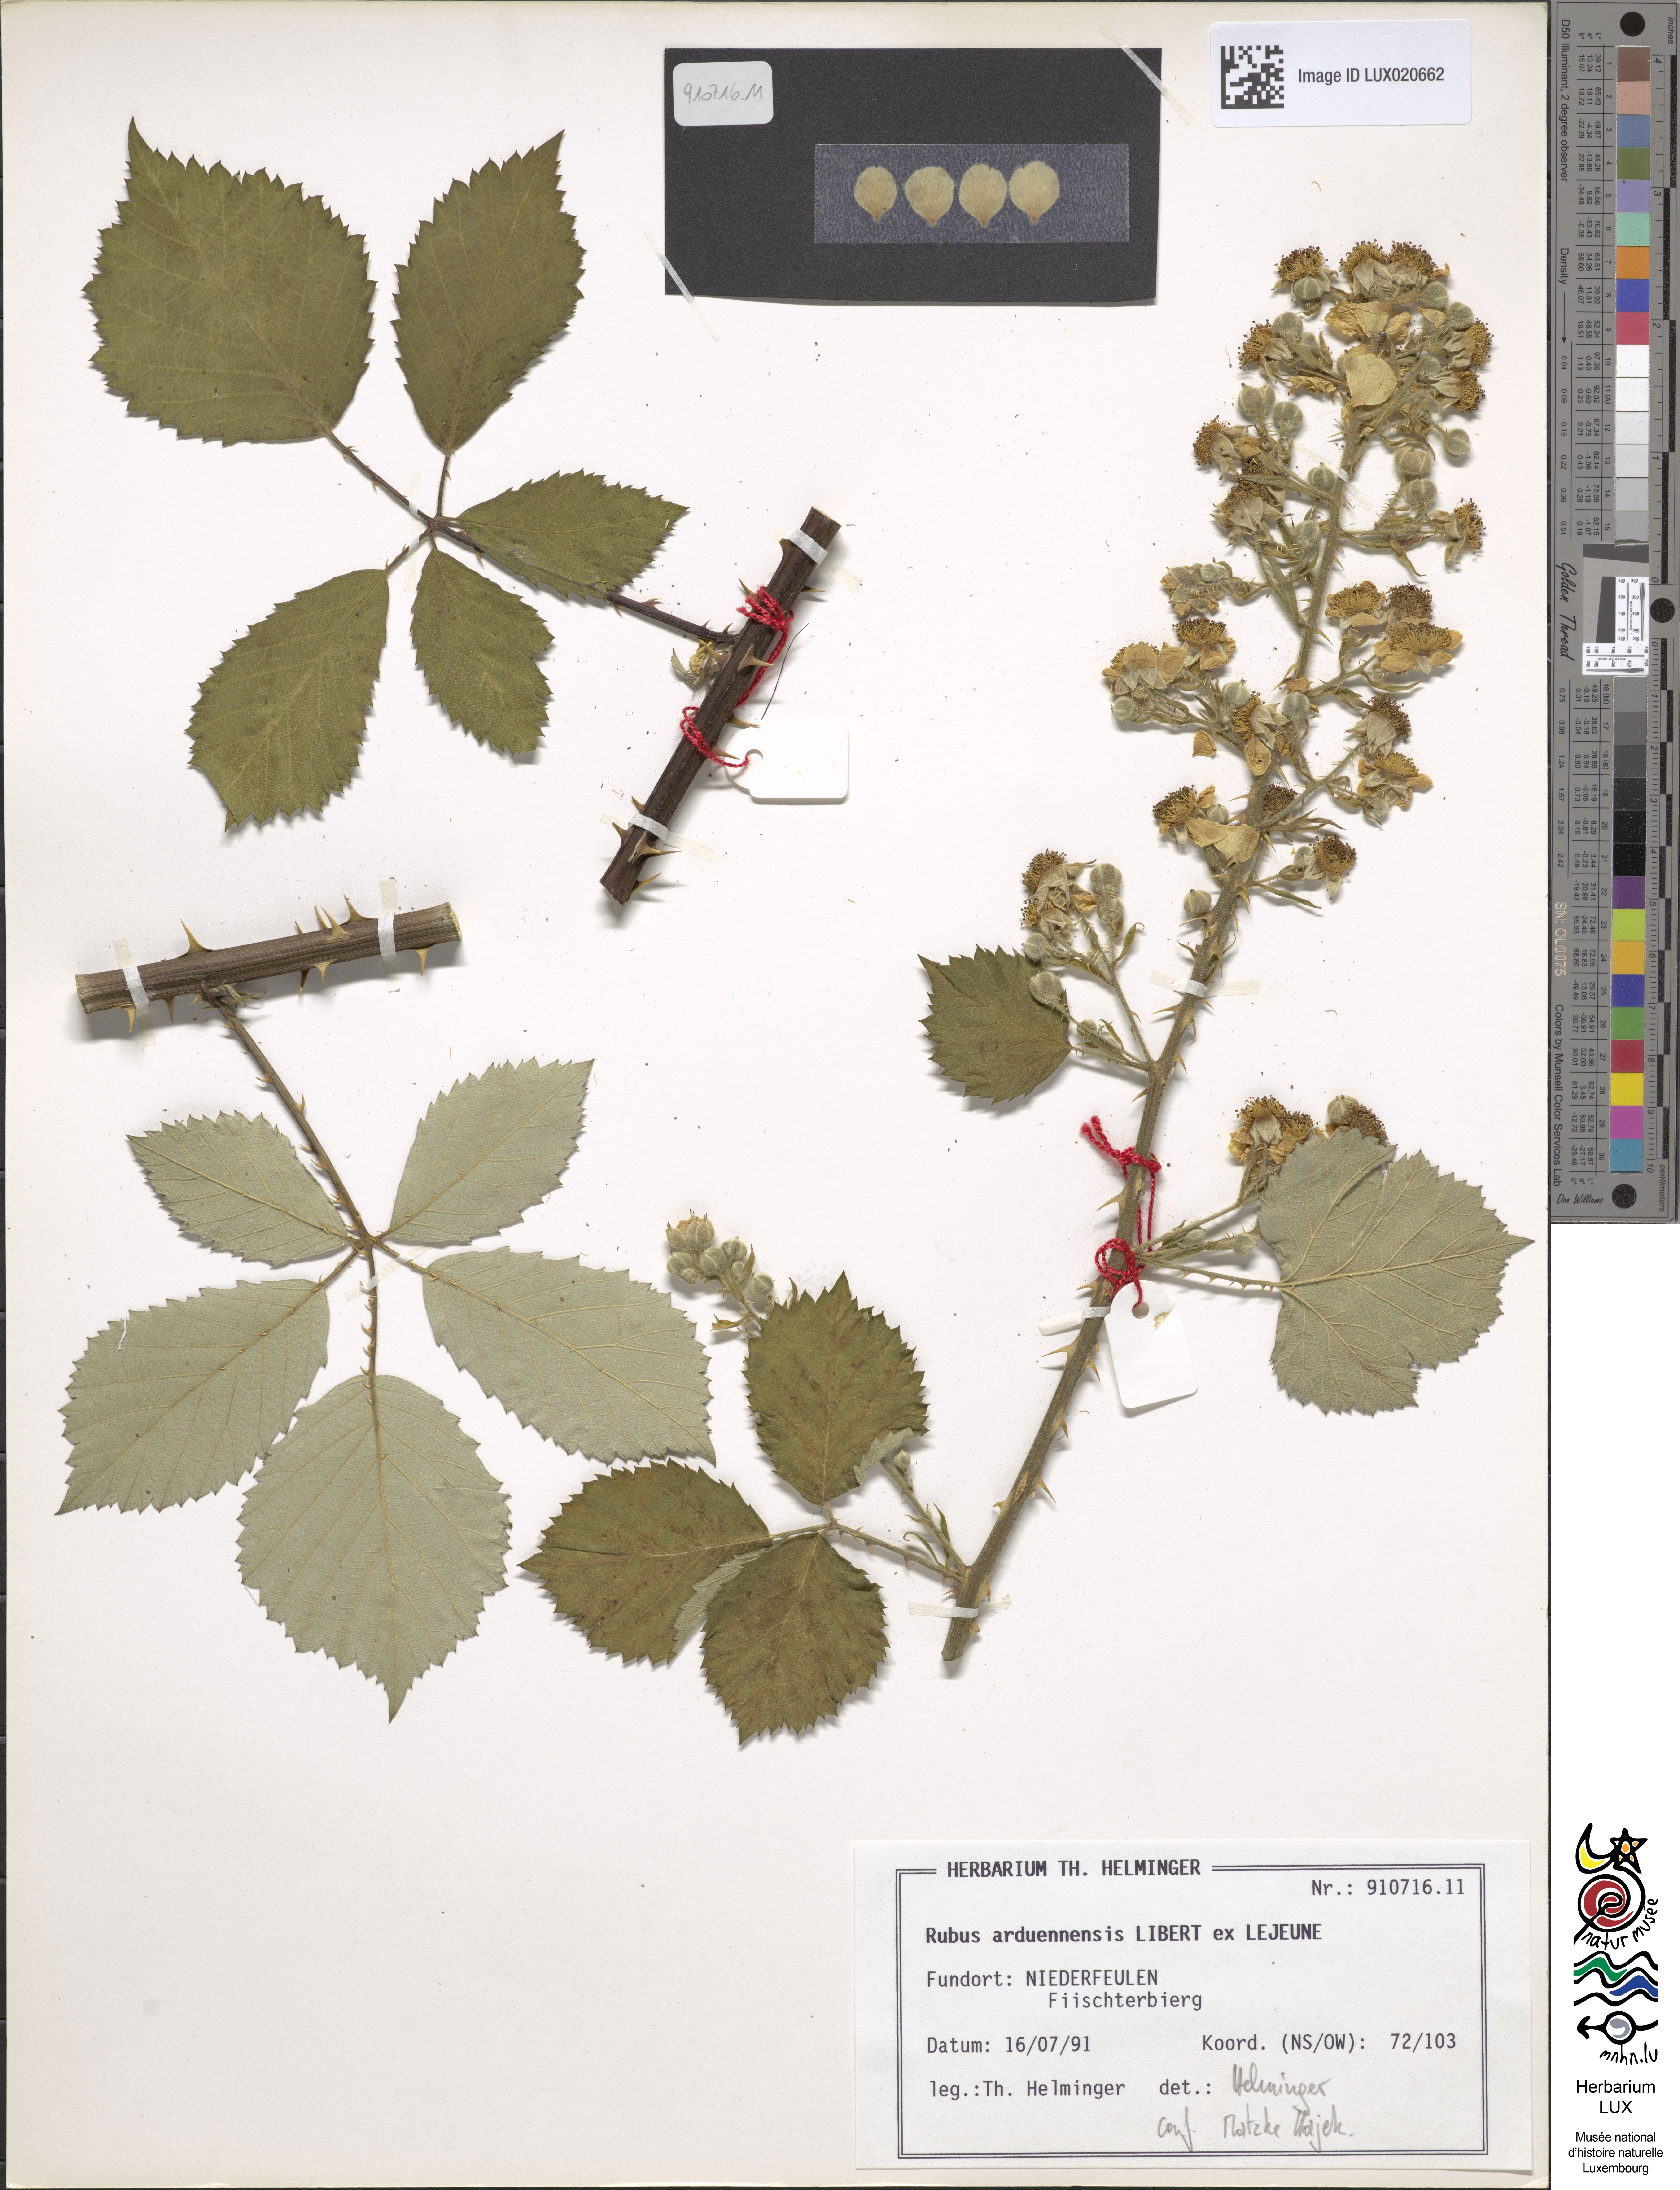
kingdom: Plantae
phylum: Tracheophyta
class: Magnoliopsida
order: Rosales
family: Rosaceae
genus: Rubus
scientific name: Rubus arduennensis
